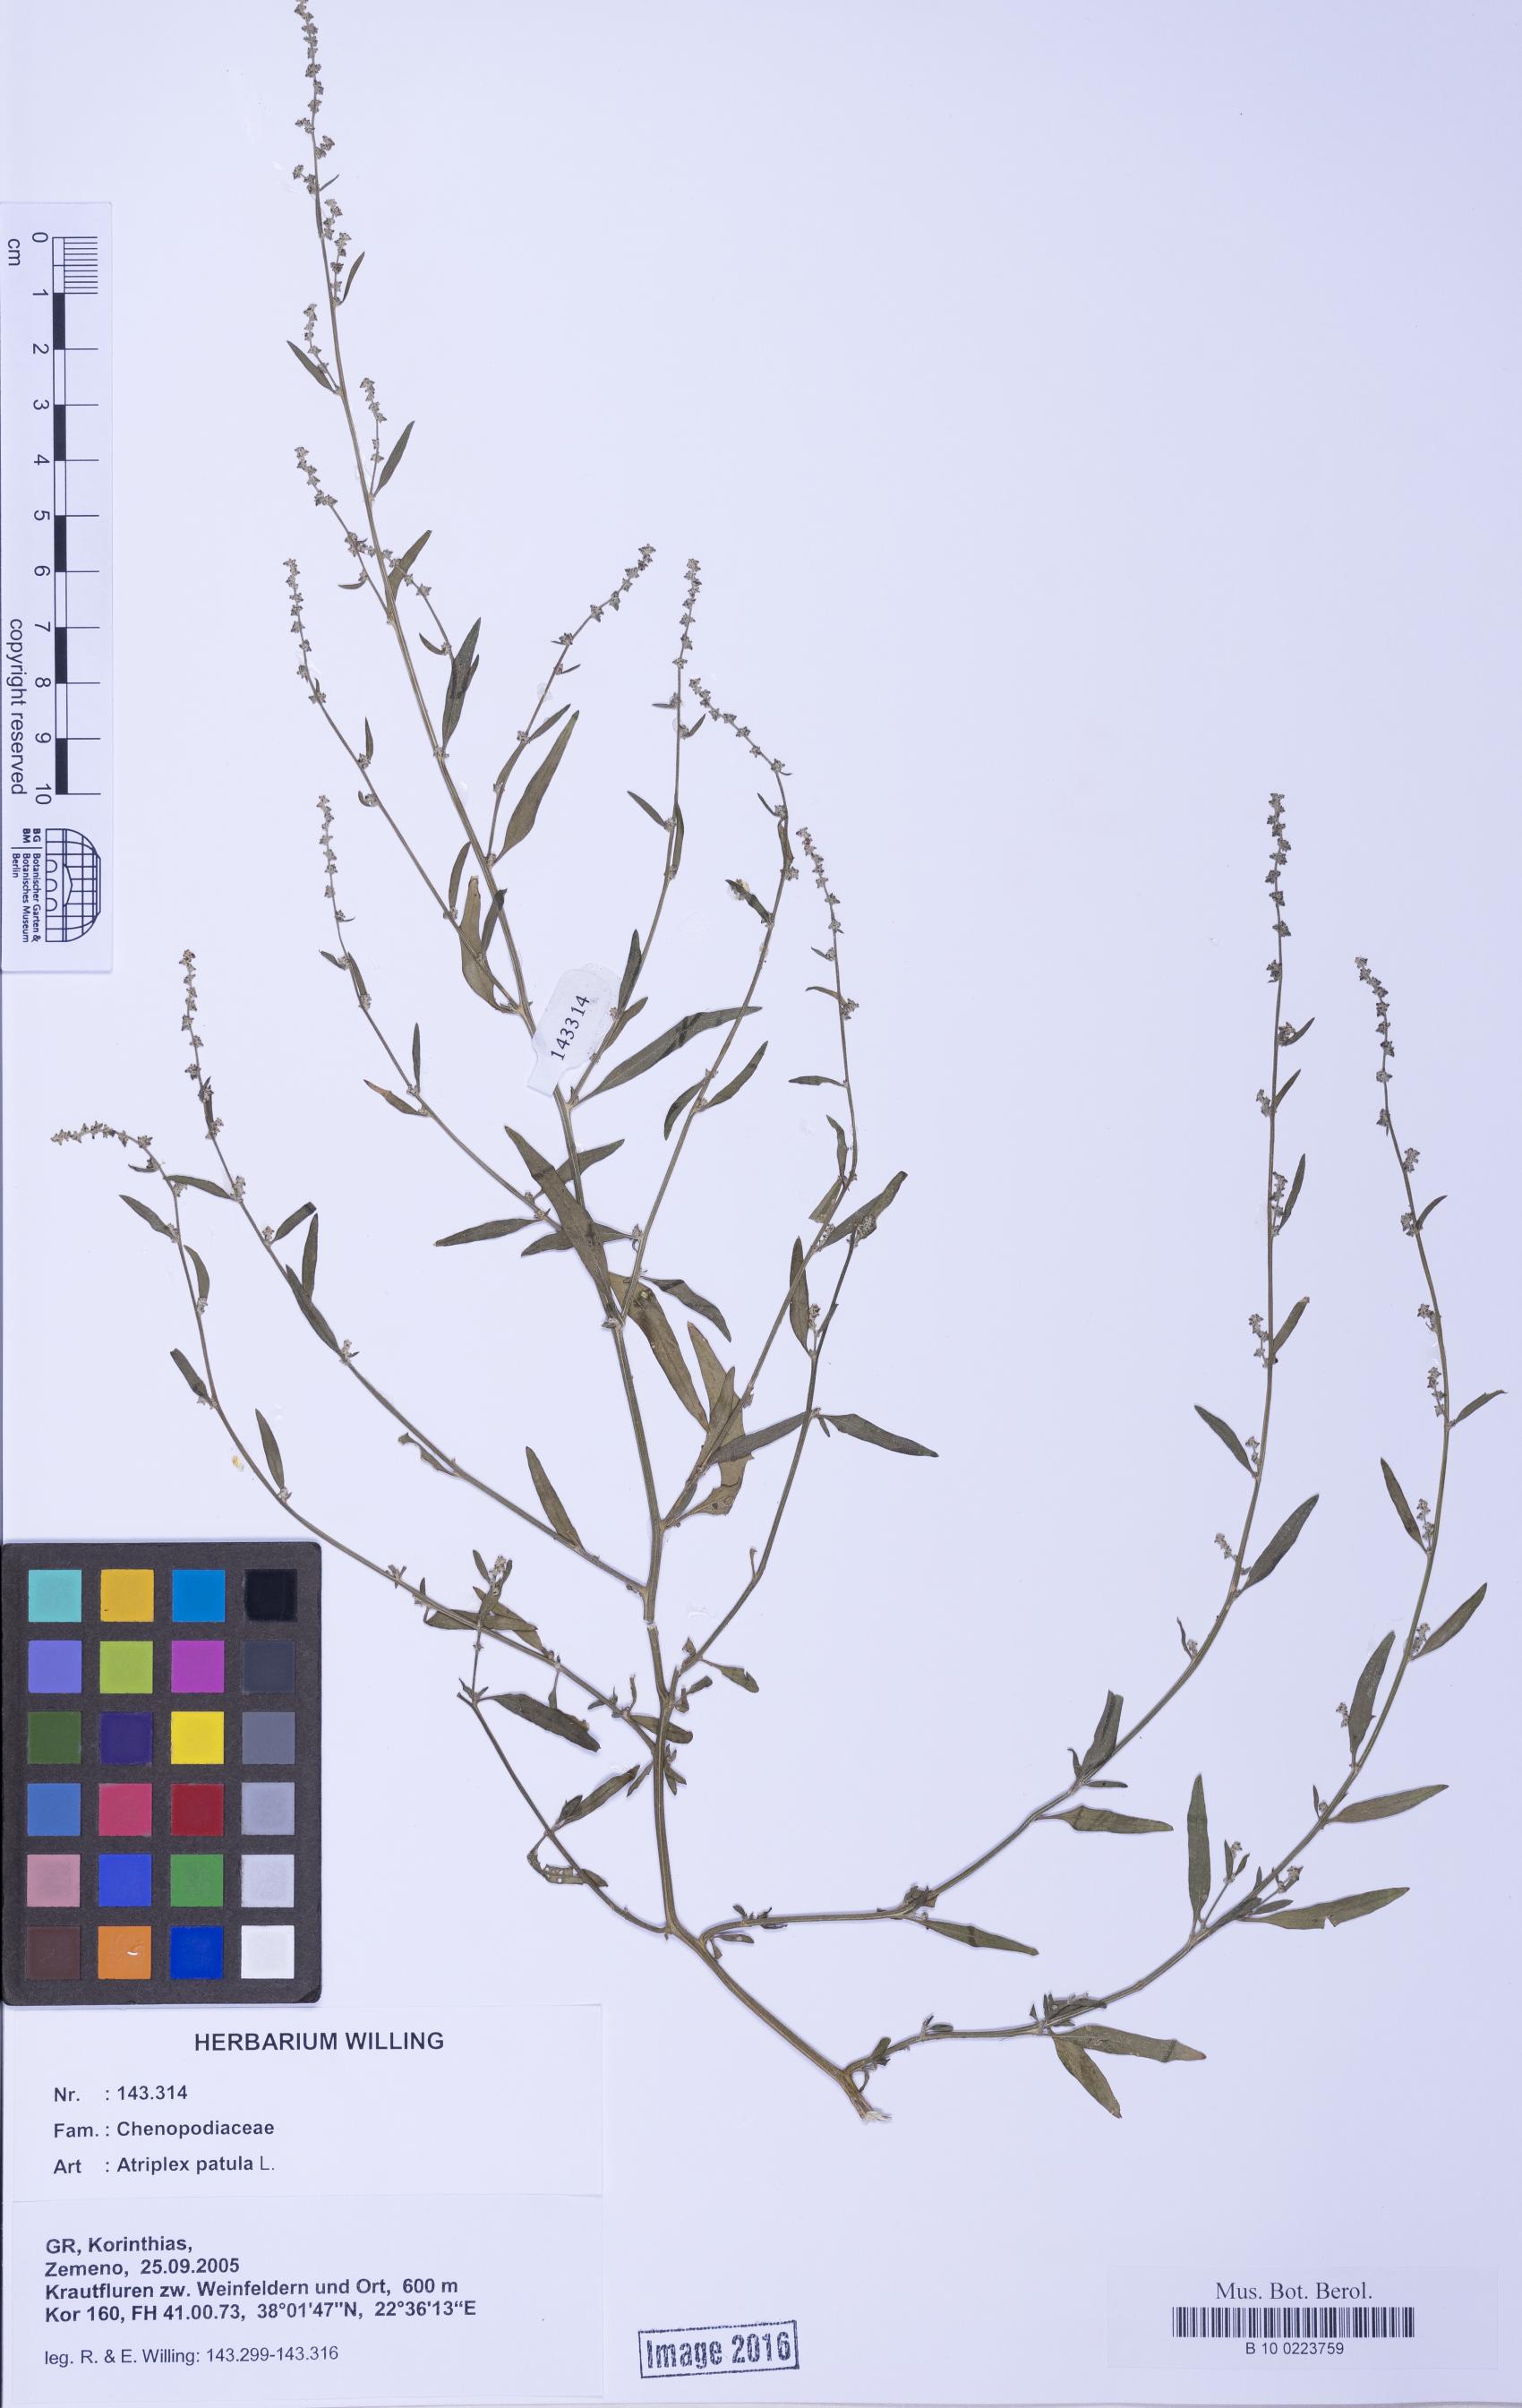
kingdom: Plantae
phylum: Tracheophyta
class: Magnoliopsida
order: Caryophyllales
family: Amaranthaceae
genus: Atriplex
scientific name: Atriplex patula
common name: Common orache
